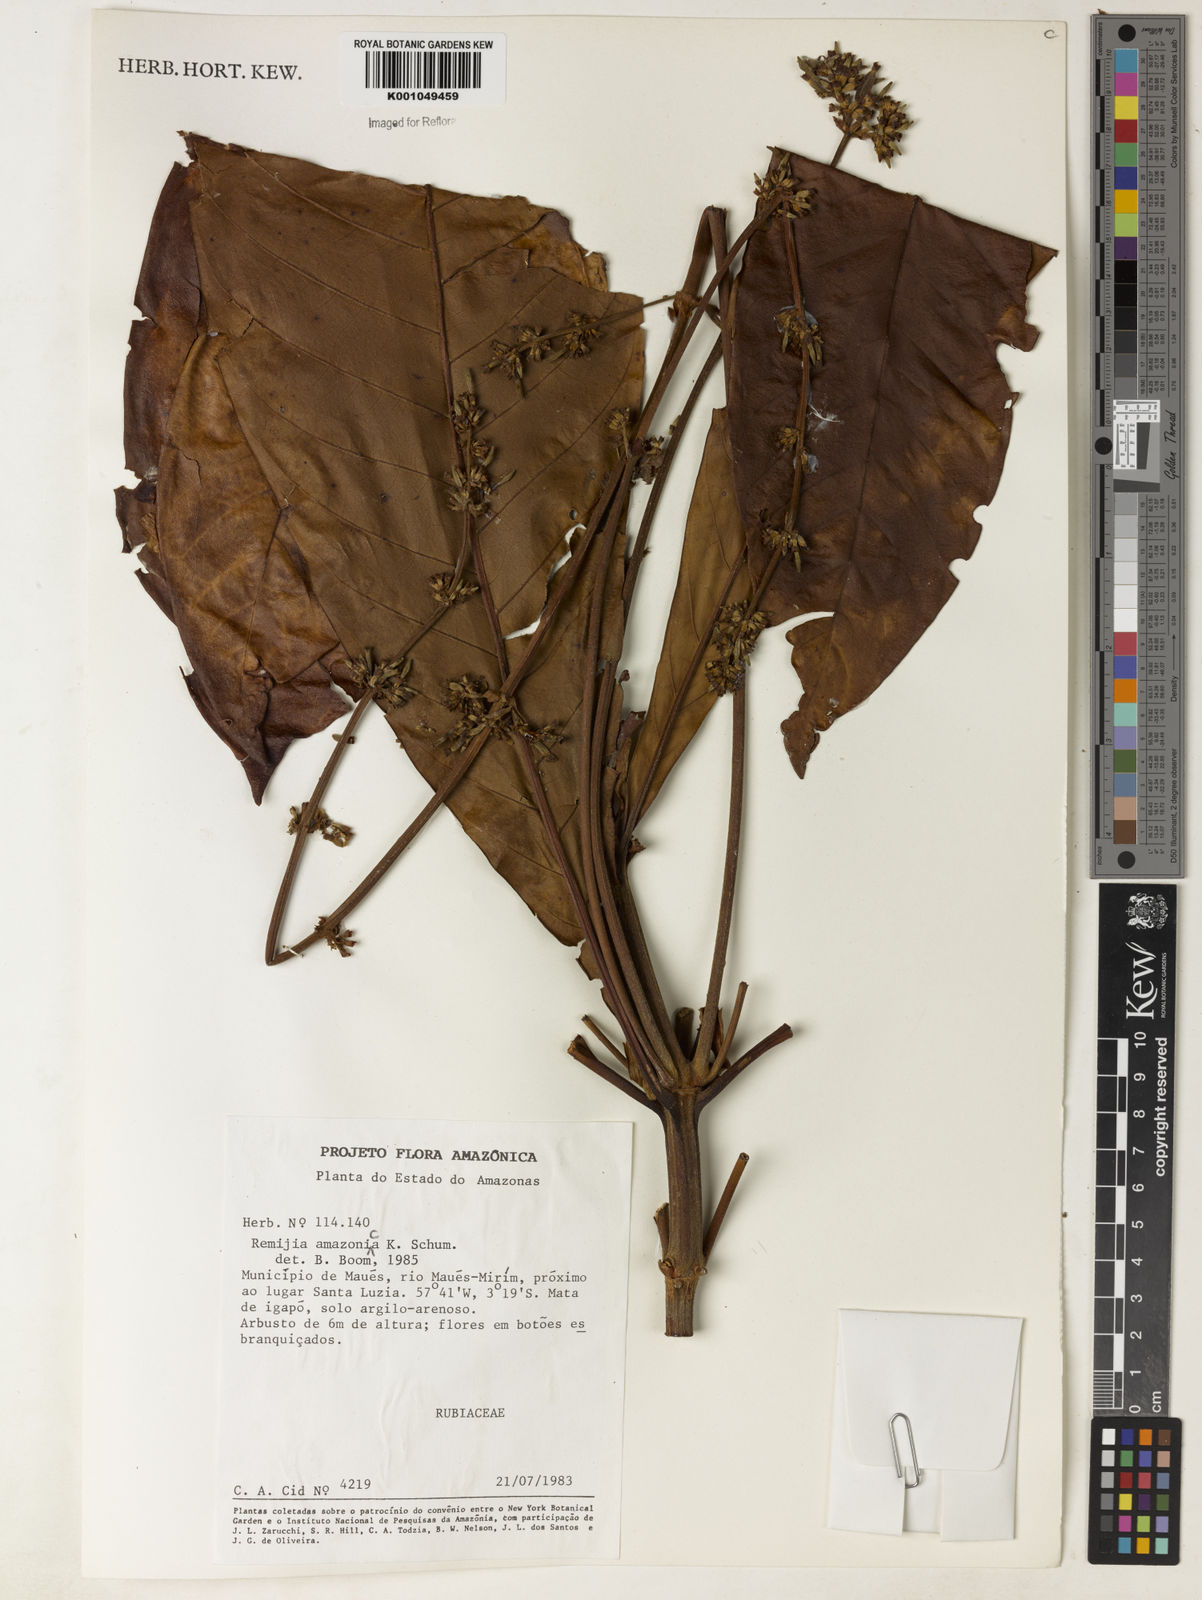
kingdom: Plantae
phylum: Tracheophyta
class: Magnoliopsida
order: Gentianales
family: Rubiaceae
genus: Remijia
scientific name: Remijia amazonica
